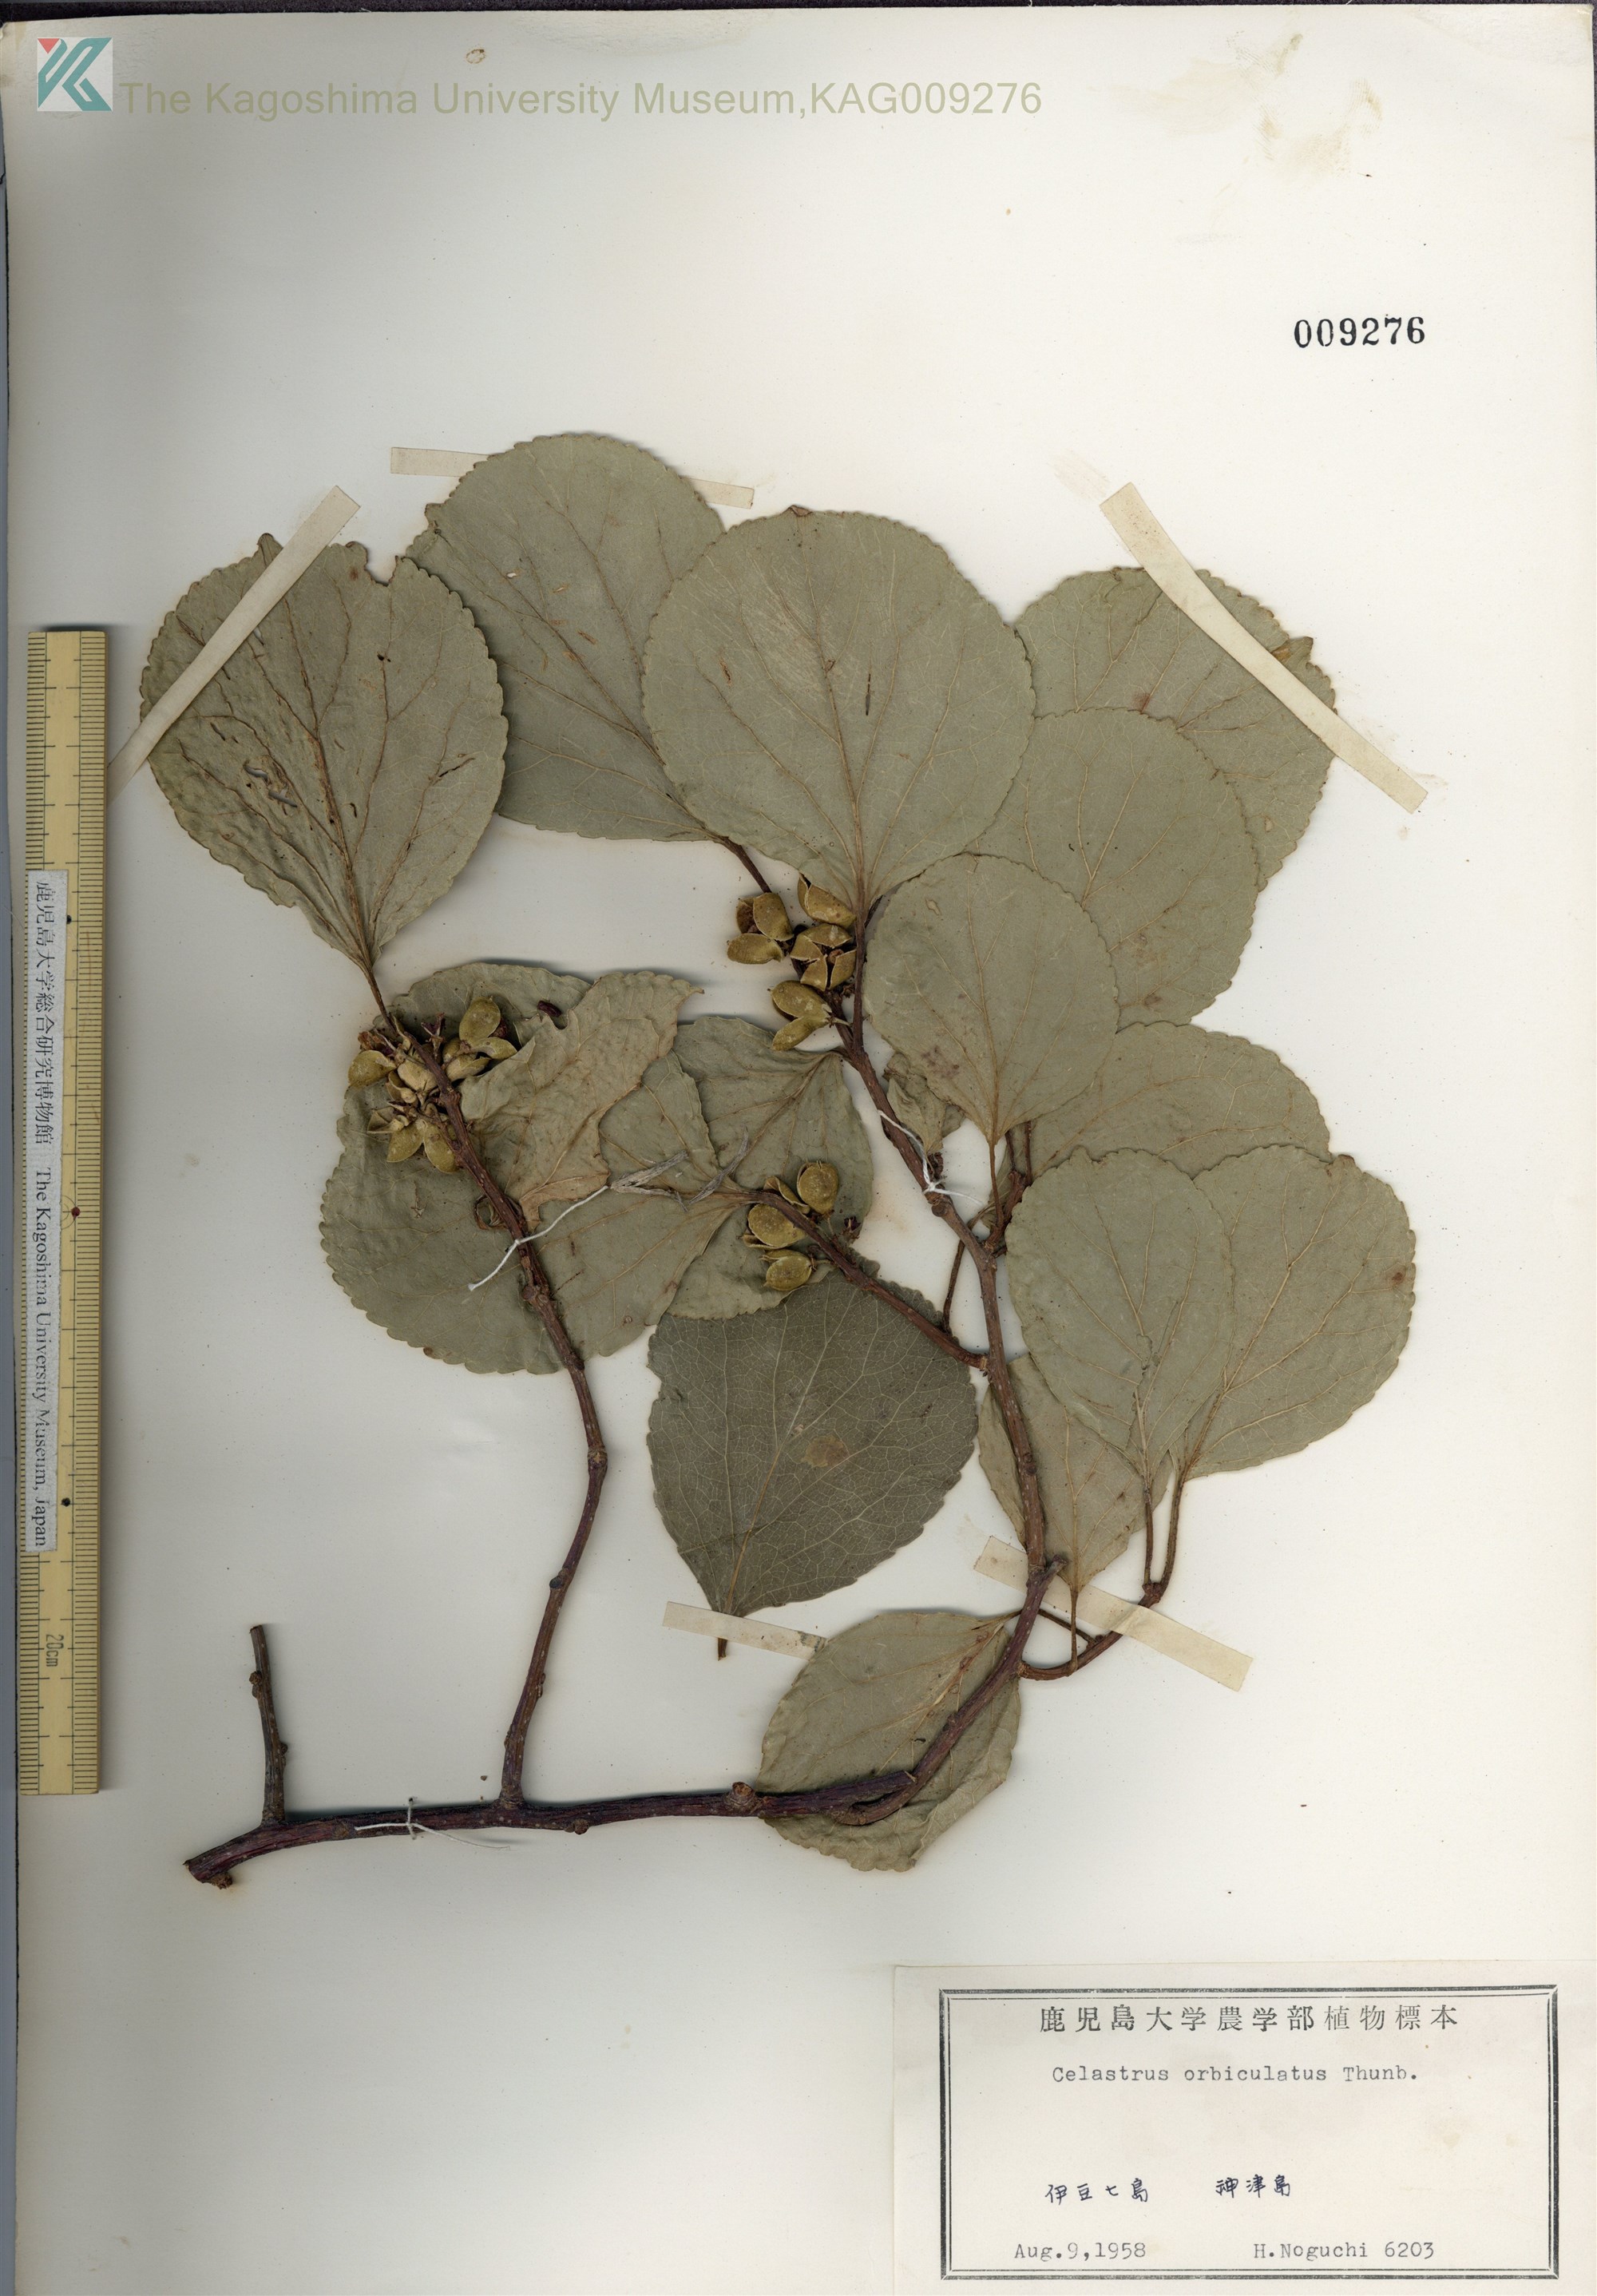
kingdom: Plantae
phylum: Tracheophyta
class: Magnoliopsida
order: Celastrales
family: Celastraceae
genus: Celastrus
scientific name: Celastrus orbiculatus
